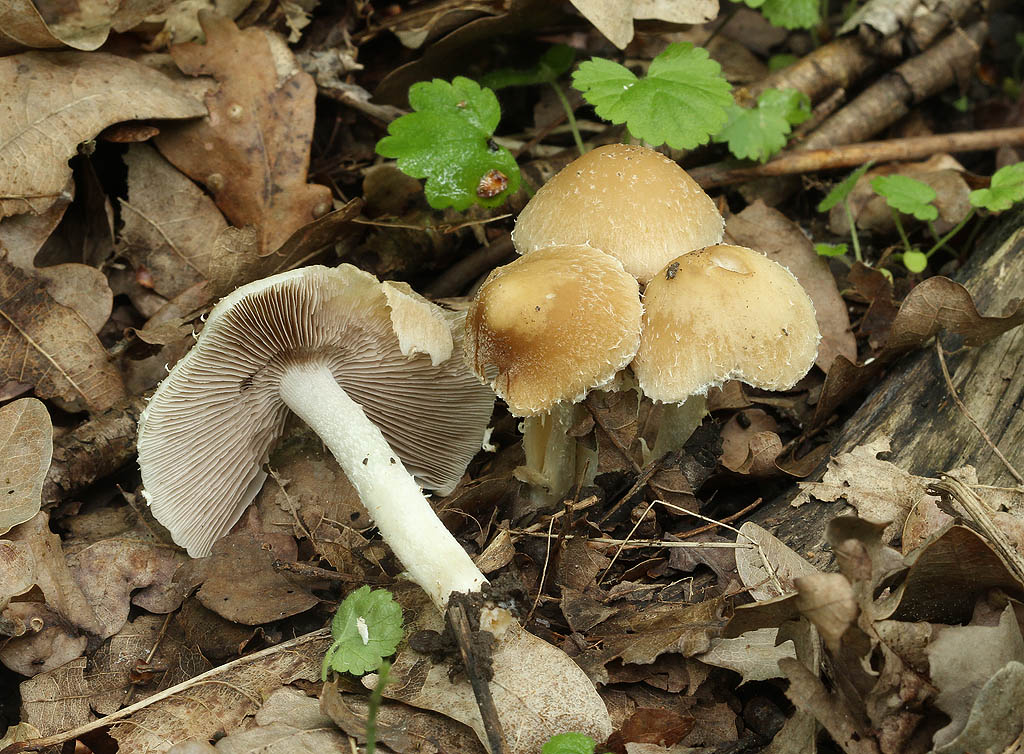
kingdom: Fungi
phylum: Basidiomycota
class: Agaricomycetes
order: Agaricales
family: Psathyrellaceae
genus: Candolleomyces
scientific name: Candolleomyces candolleanus
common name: Candolles mørkhat
